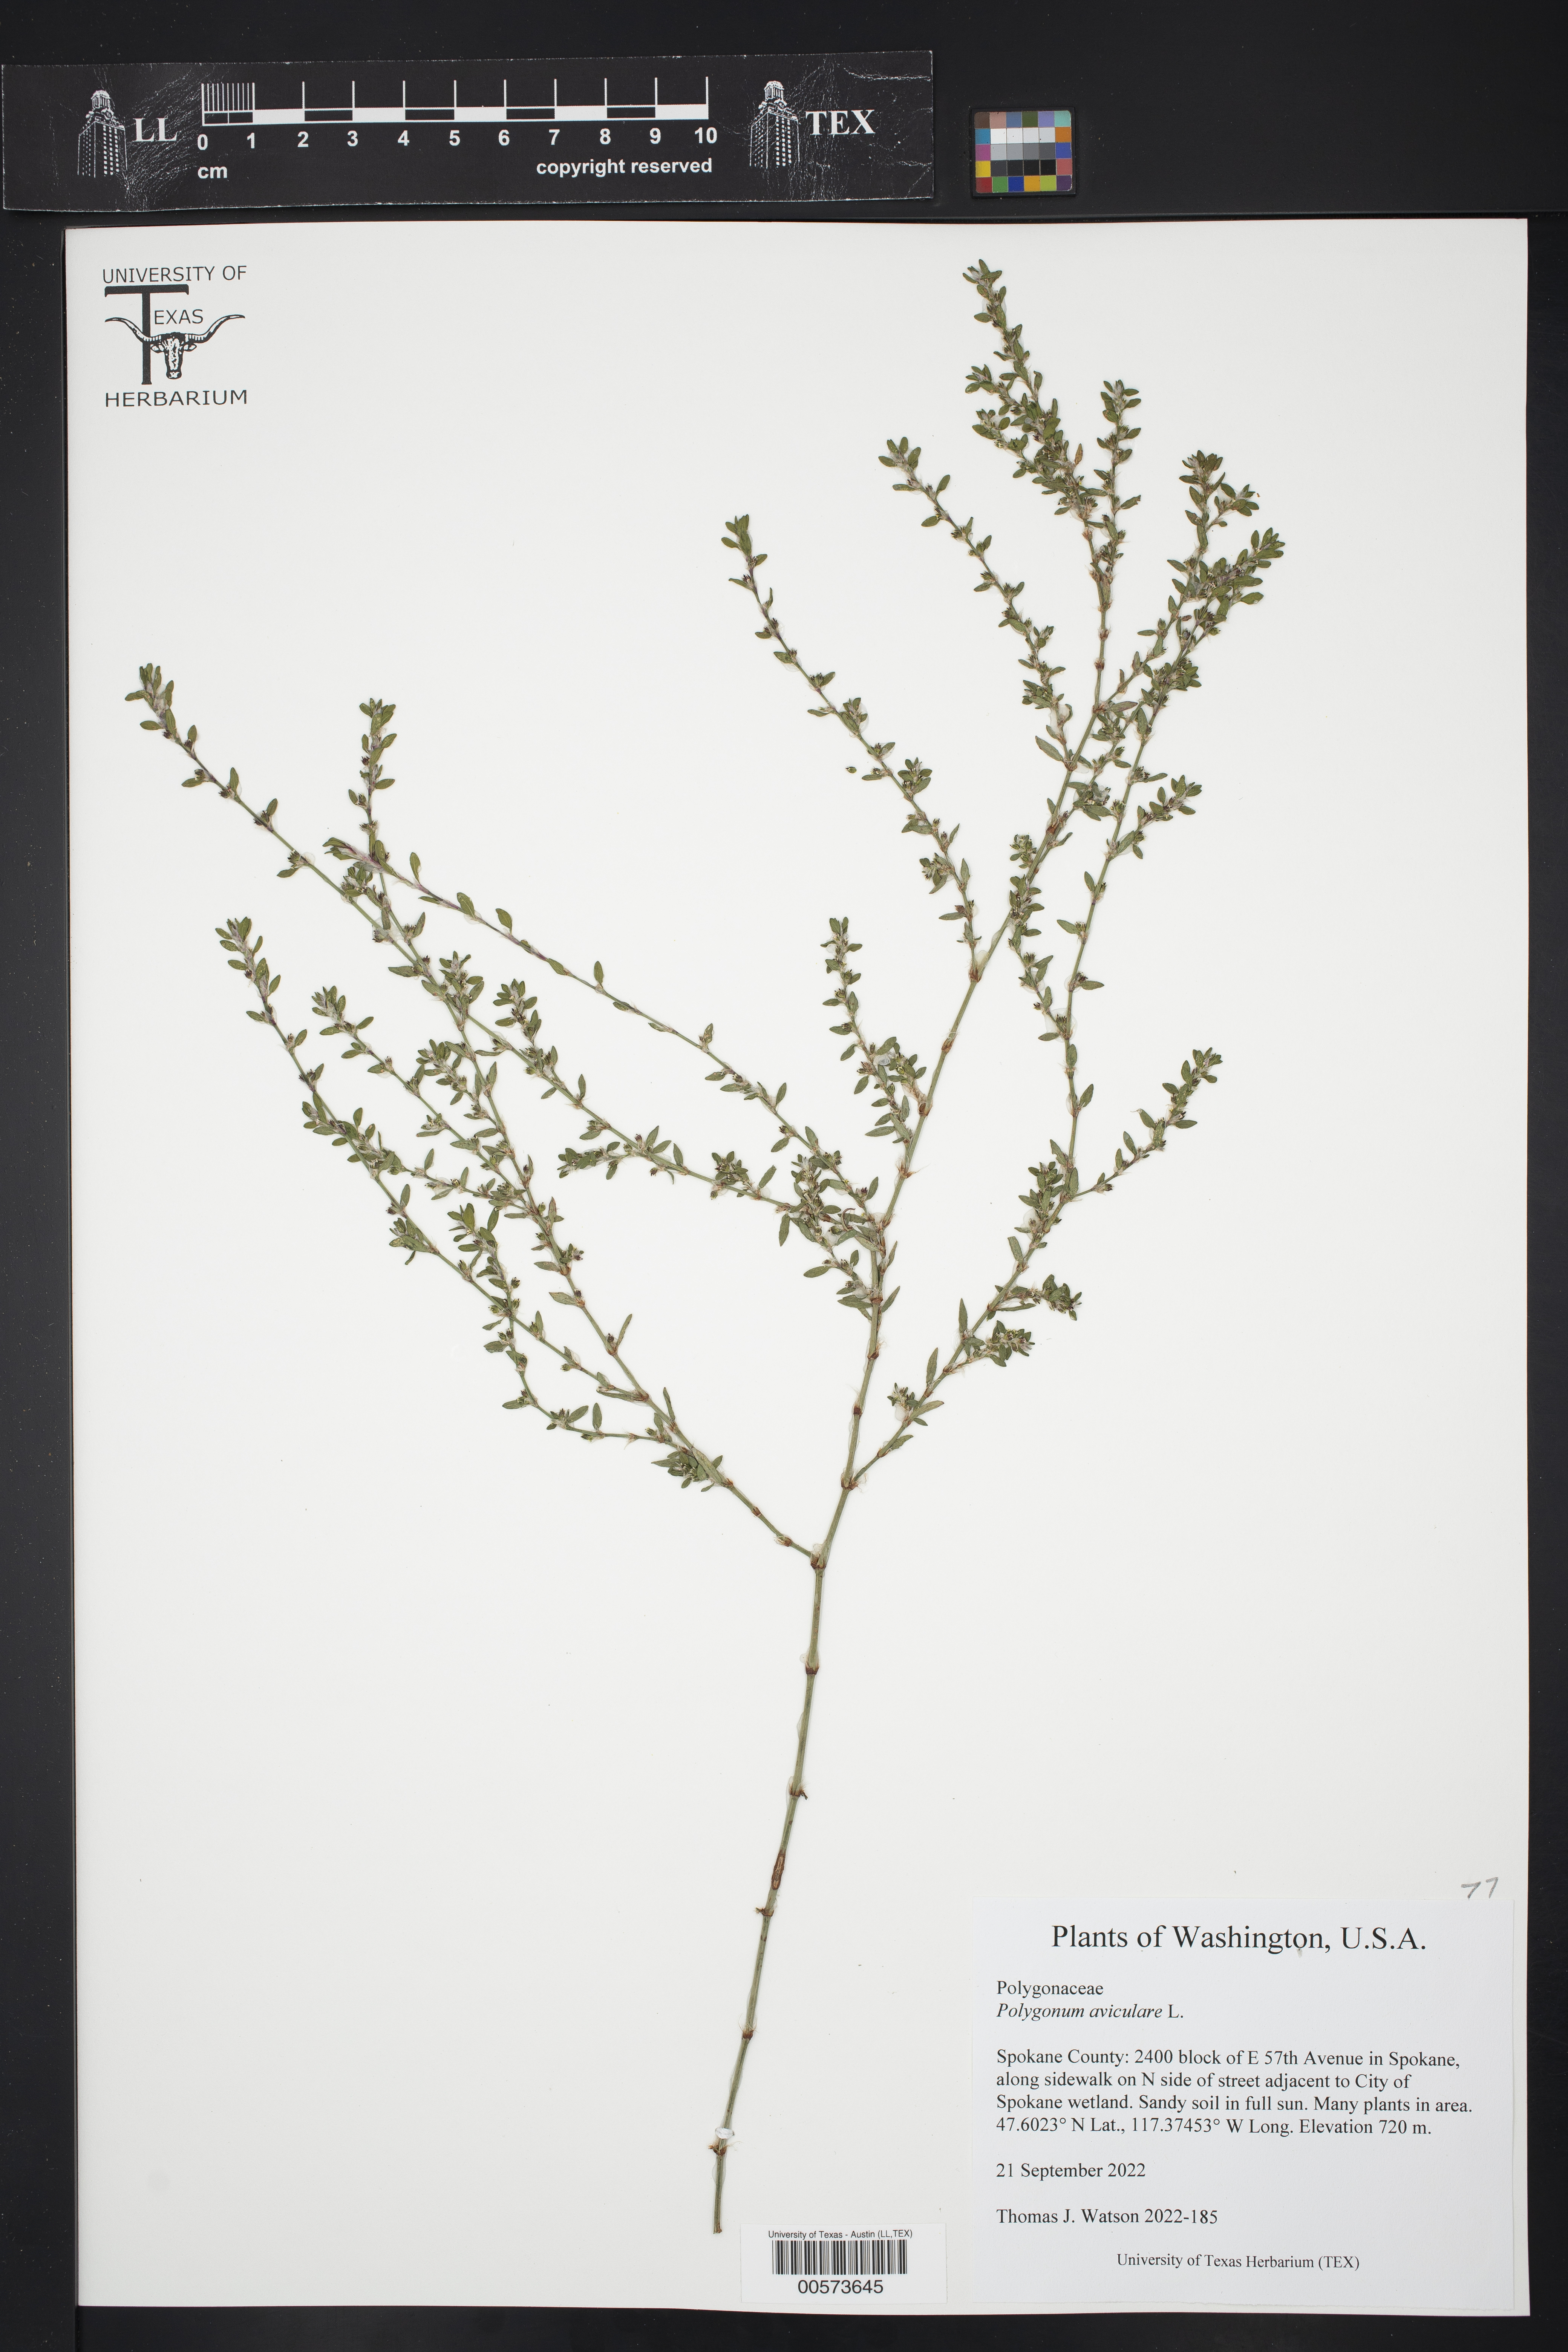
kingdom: Plantae
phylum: Tracheophyta
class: Magnoliopsida
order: Caryophyllales
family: Polygonaceae
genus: Polygonum
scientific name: Polygonum aviculare
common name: Prostrate knotweed
